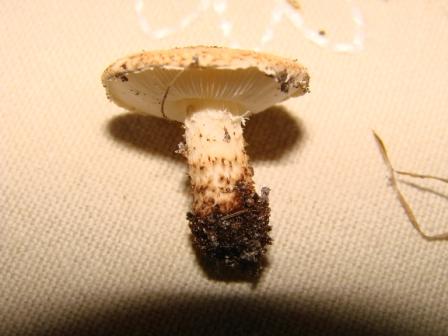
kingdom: Fungi
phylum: Basidiomycota
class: Agaricomycetes
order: Agaricales
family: Agaricaceae
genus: Echinoderma
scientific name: Echinoderma carinii
